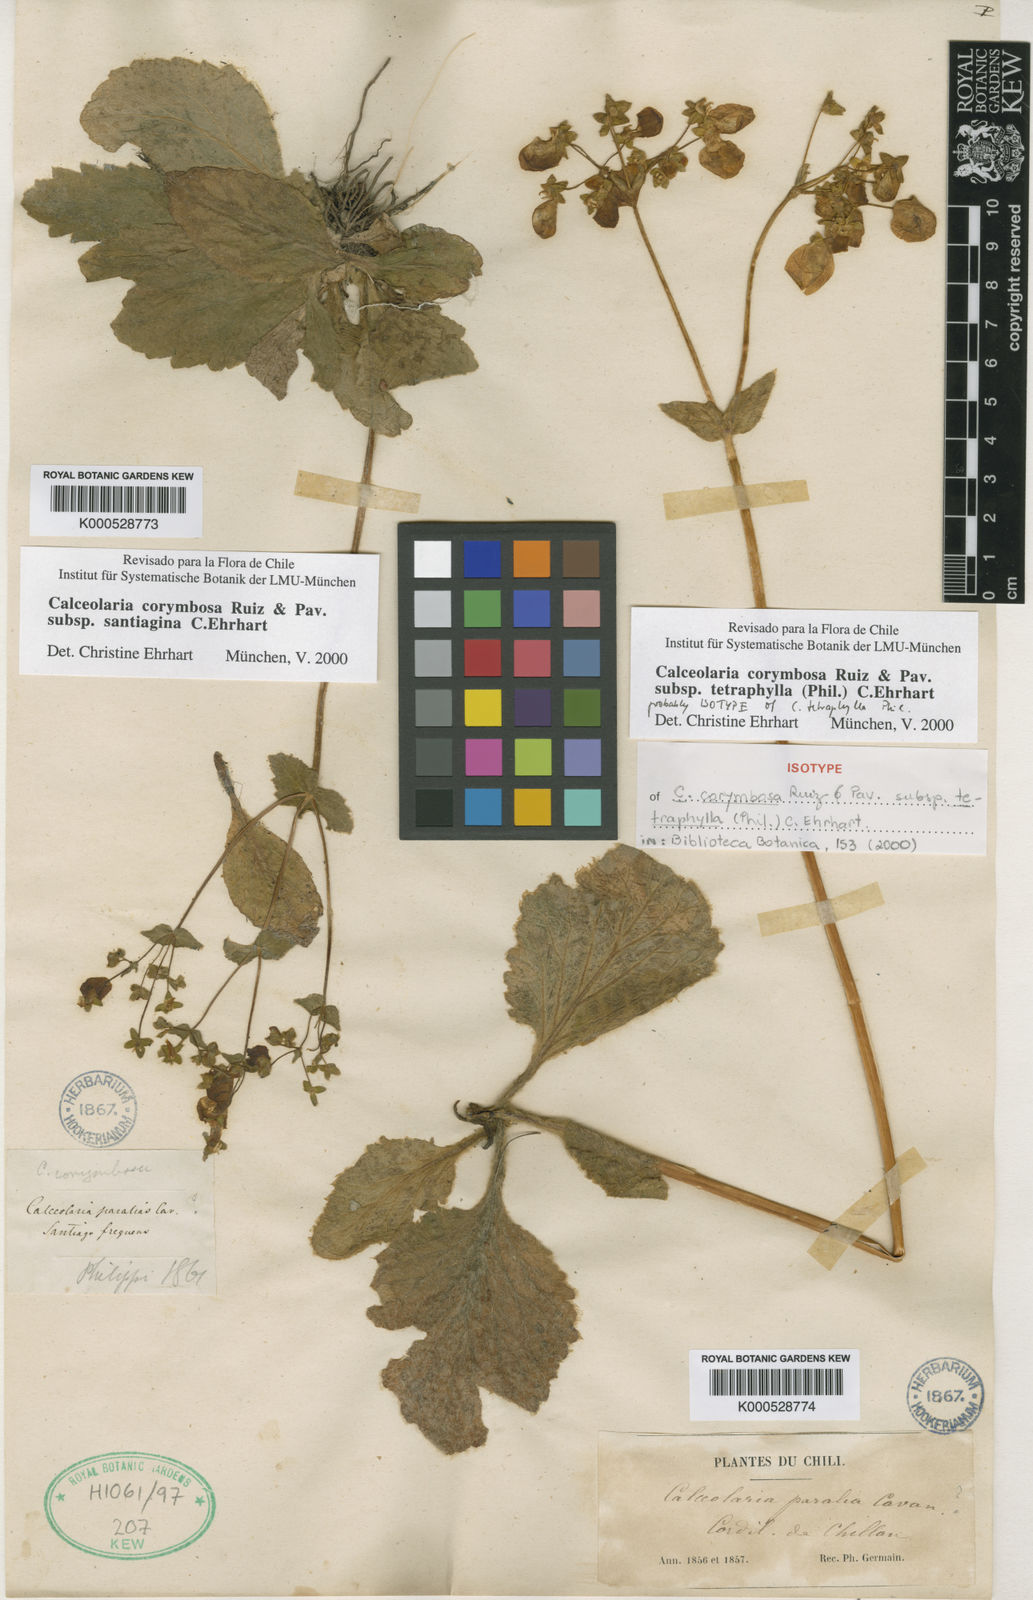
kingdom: Plantae
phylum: Tracheophyta
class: Magnoliopsida
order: Lamiales
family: Calceolariaceae
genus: Calceolaria
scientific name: Calceolaria corymbosa
